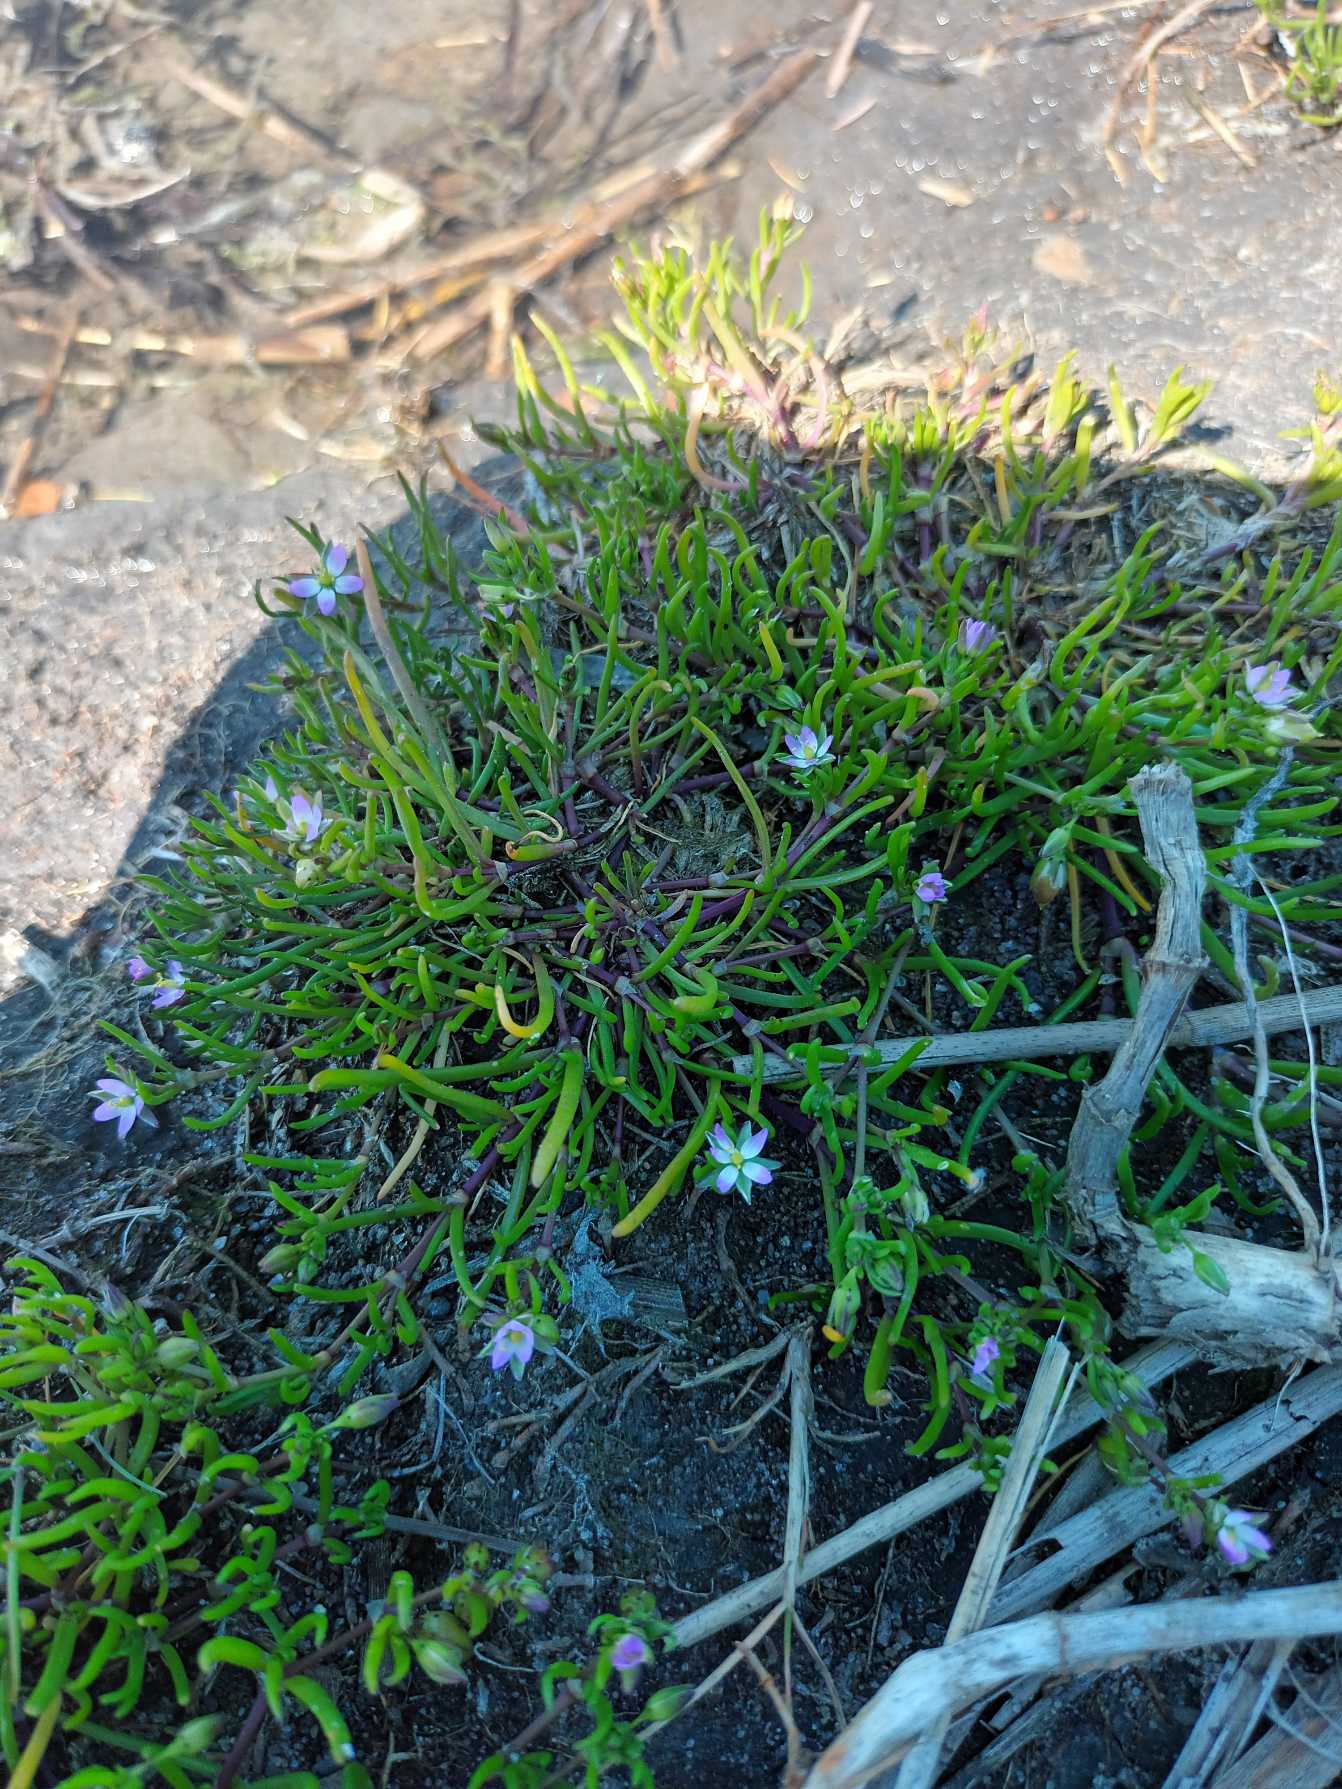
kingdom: Plantae
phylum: Tracheophyta
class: Magnoliopsida
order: Caryophyllales
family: Caryophyllaceae
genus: Spergularia
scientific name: Spergularia marina
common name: Kødet hindeknæ
